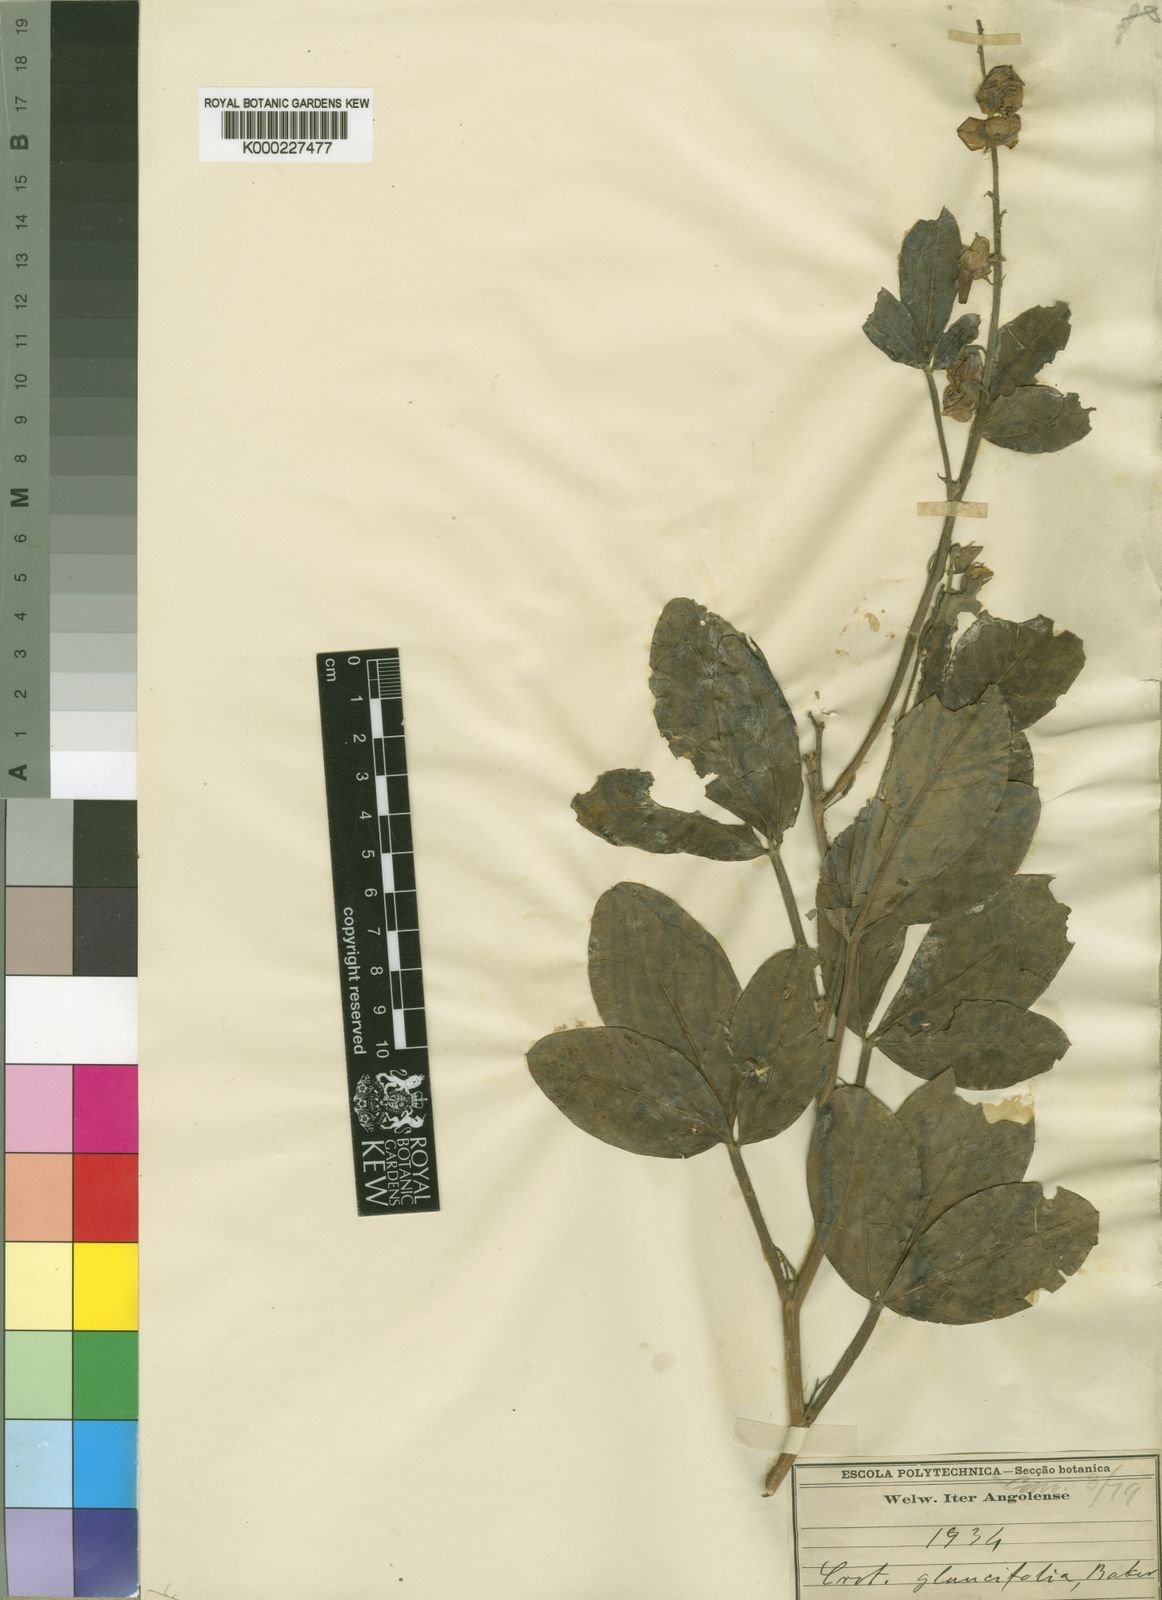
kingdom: Plantae
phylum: Tracheophyta
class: Magnoliopsida
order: Fabales
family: Fabaceae
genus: Crotalaria
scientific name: Crotalaria glaucifolia
